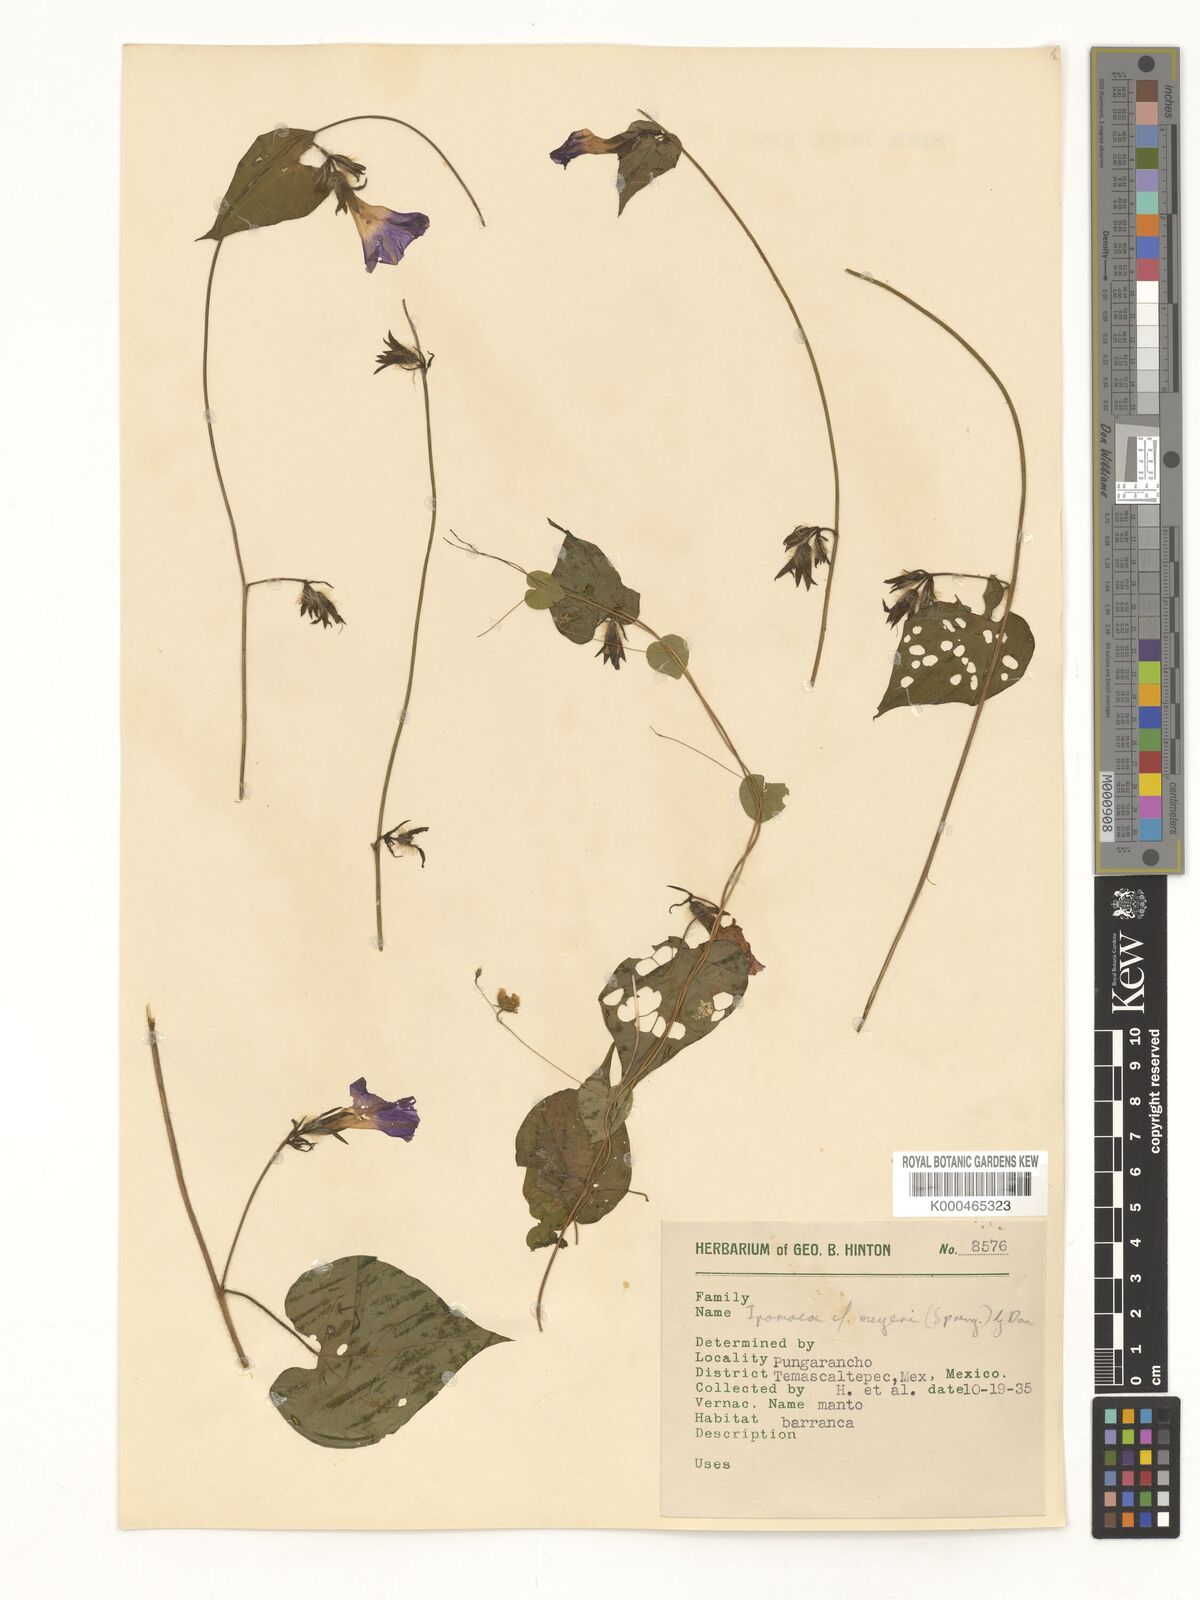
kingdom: Plantae
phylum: Tracheophyta
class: Magnoliopsida
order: Solanales
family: Convolvulaceae
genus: Ipomoea
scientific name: Ipomoea meyeri
